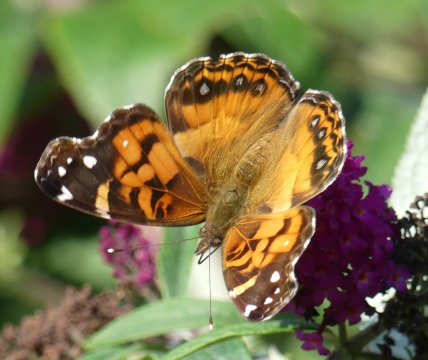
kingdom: Animalia
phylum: Arthropoda
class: Insecta
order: Lepidoptera
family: Nymphalidae
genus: Vanessa
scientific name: Vanessa virginiensis
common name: American Lady
